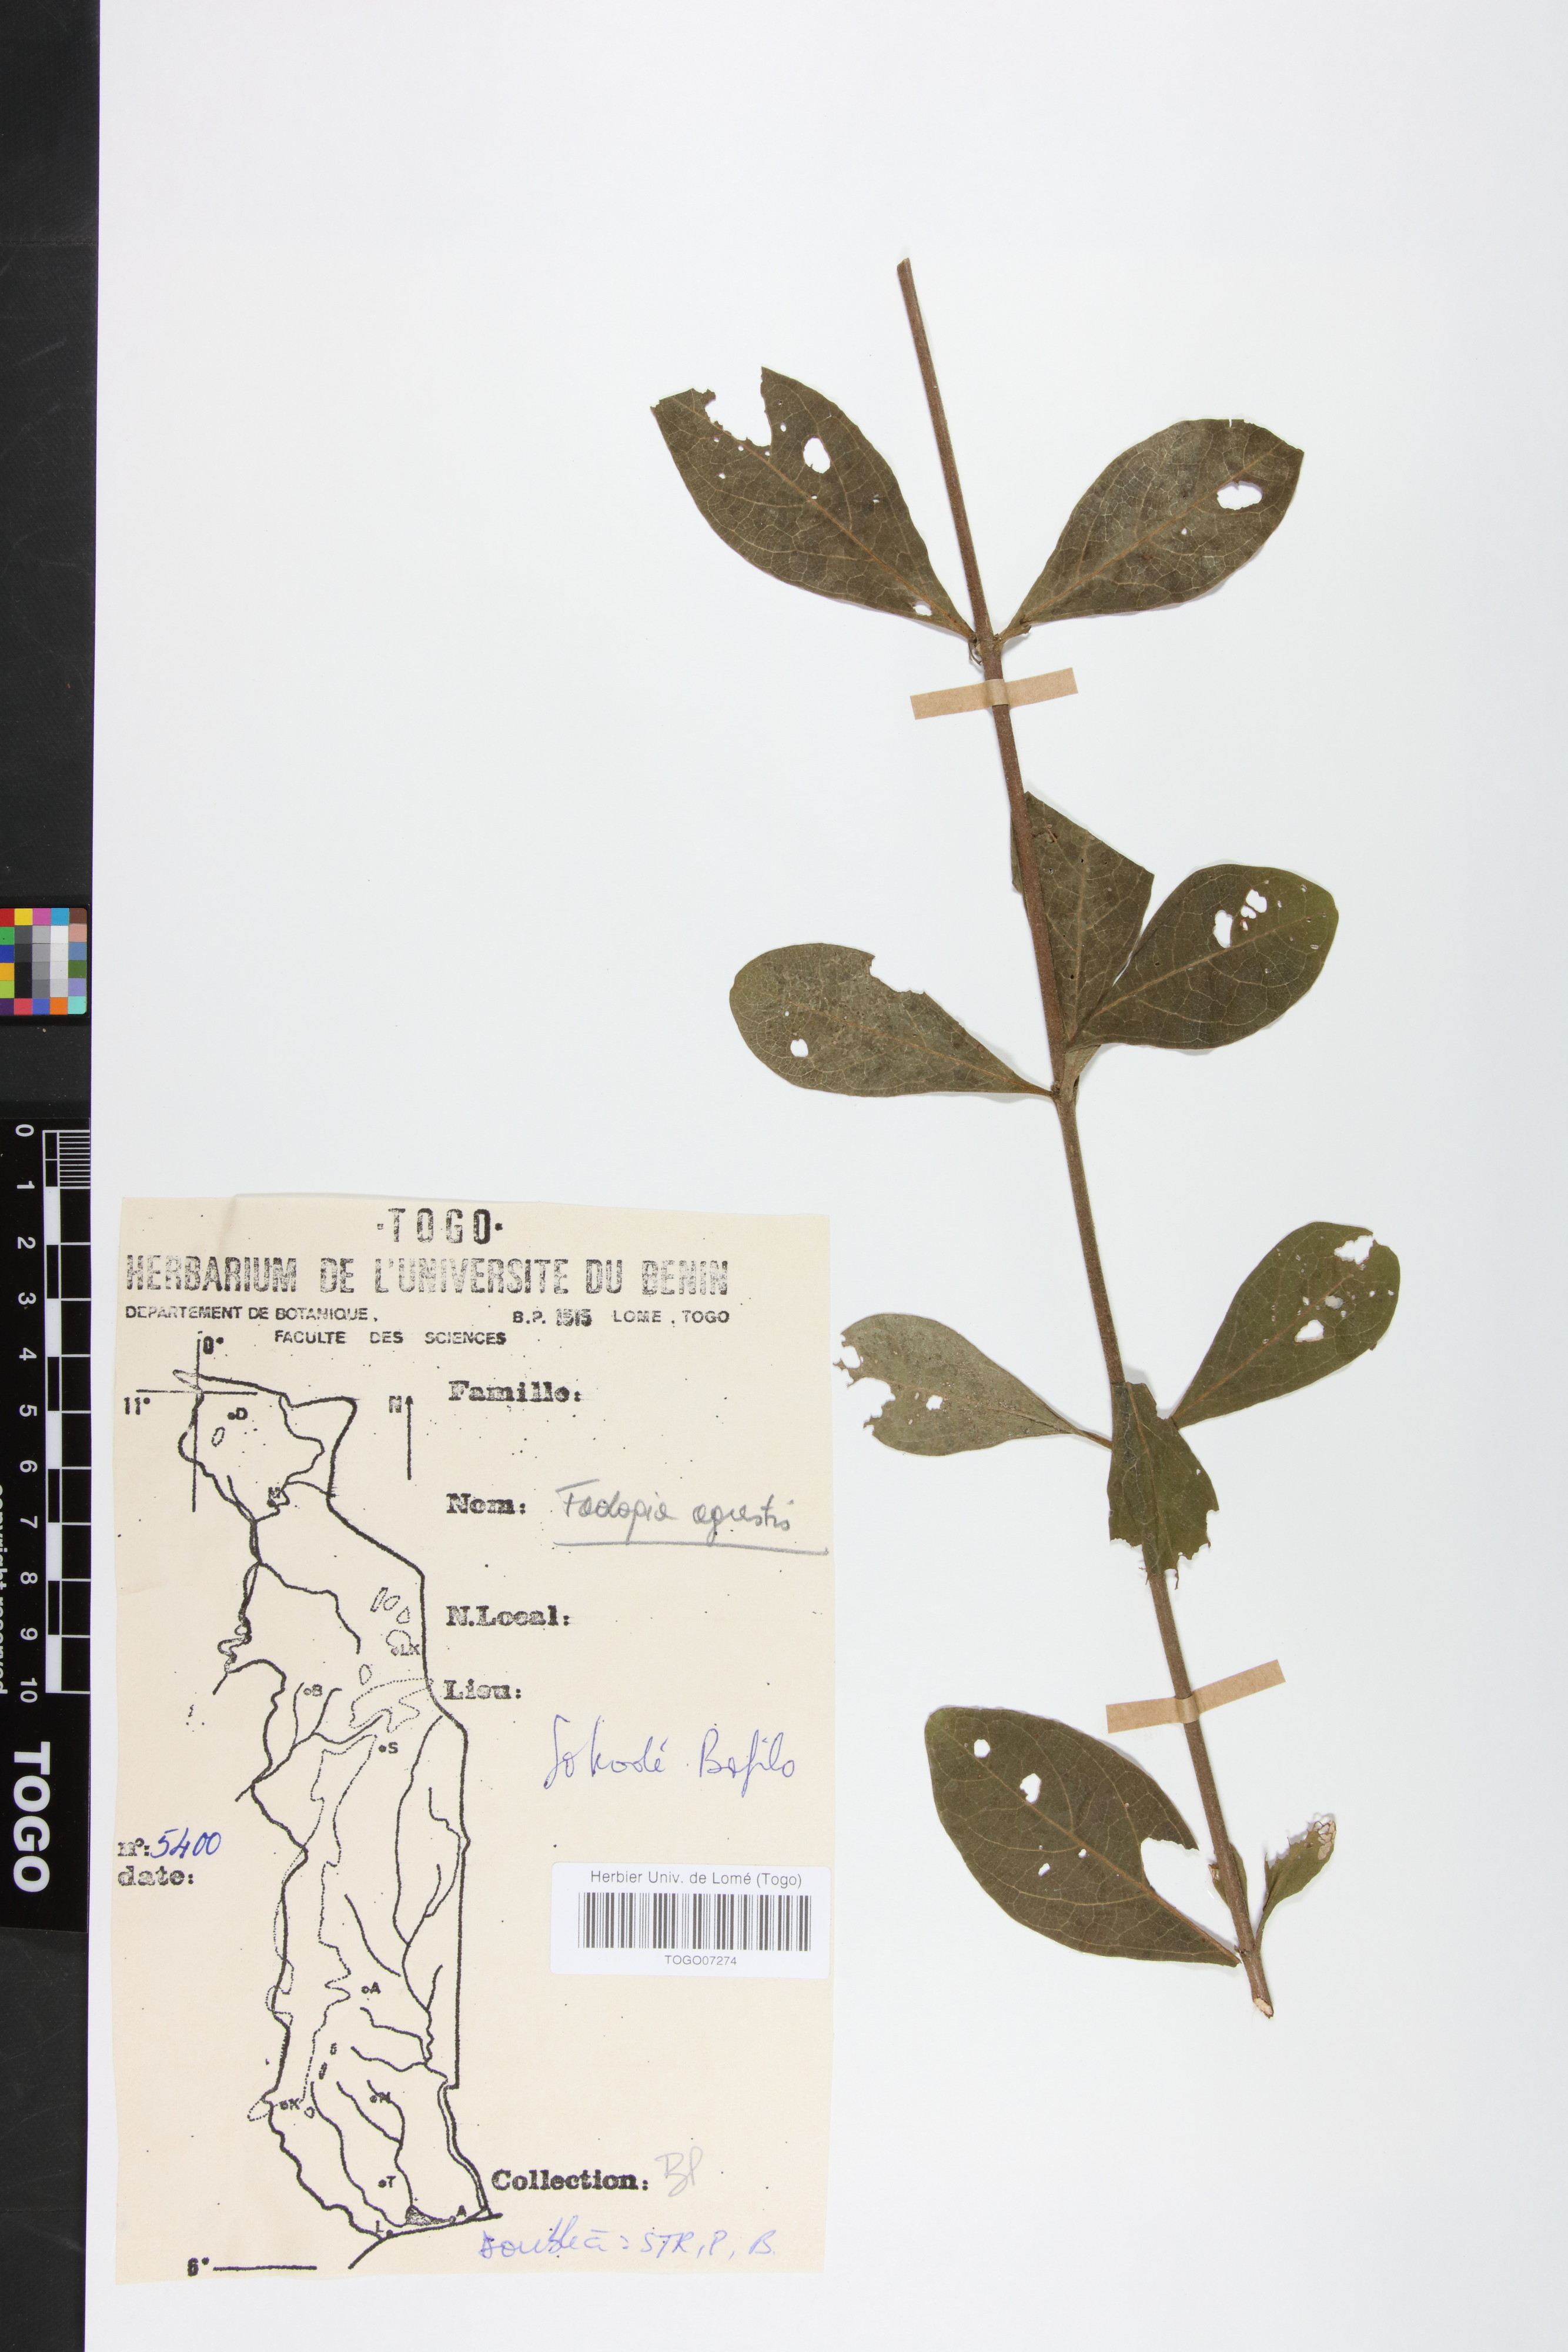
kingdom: Plantae
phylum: Tracheophyta
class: Magnoliopsida
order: Gentianales
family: Rubiaceae
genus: Vangueria
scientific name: Vangueria agrestis
